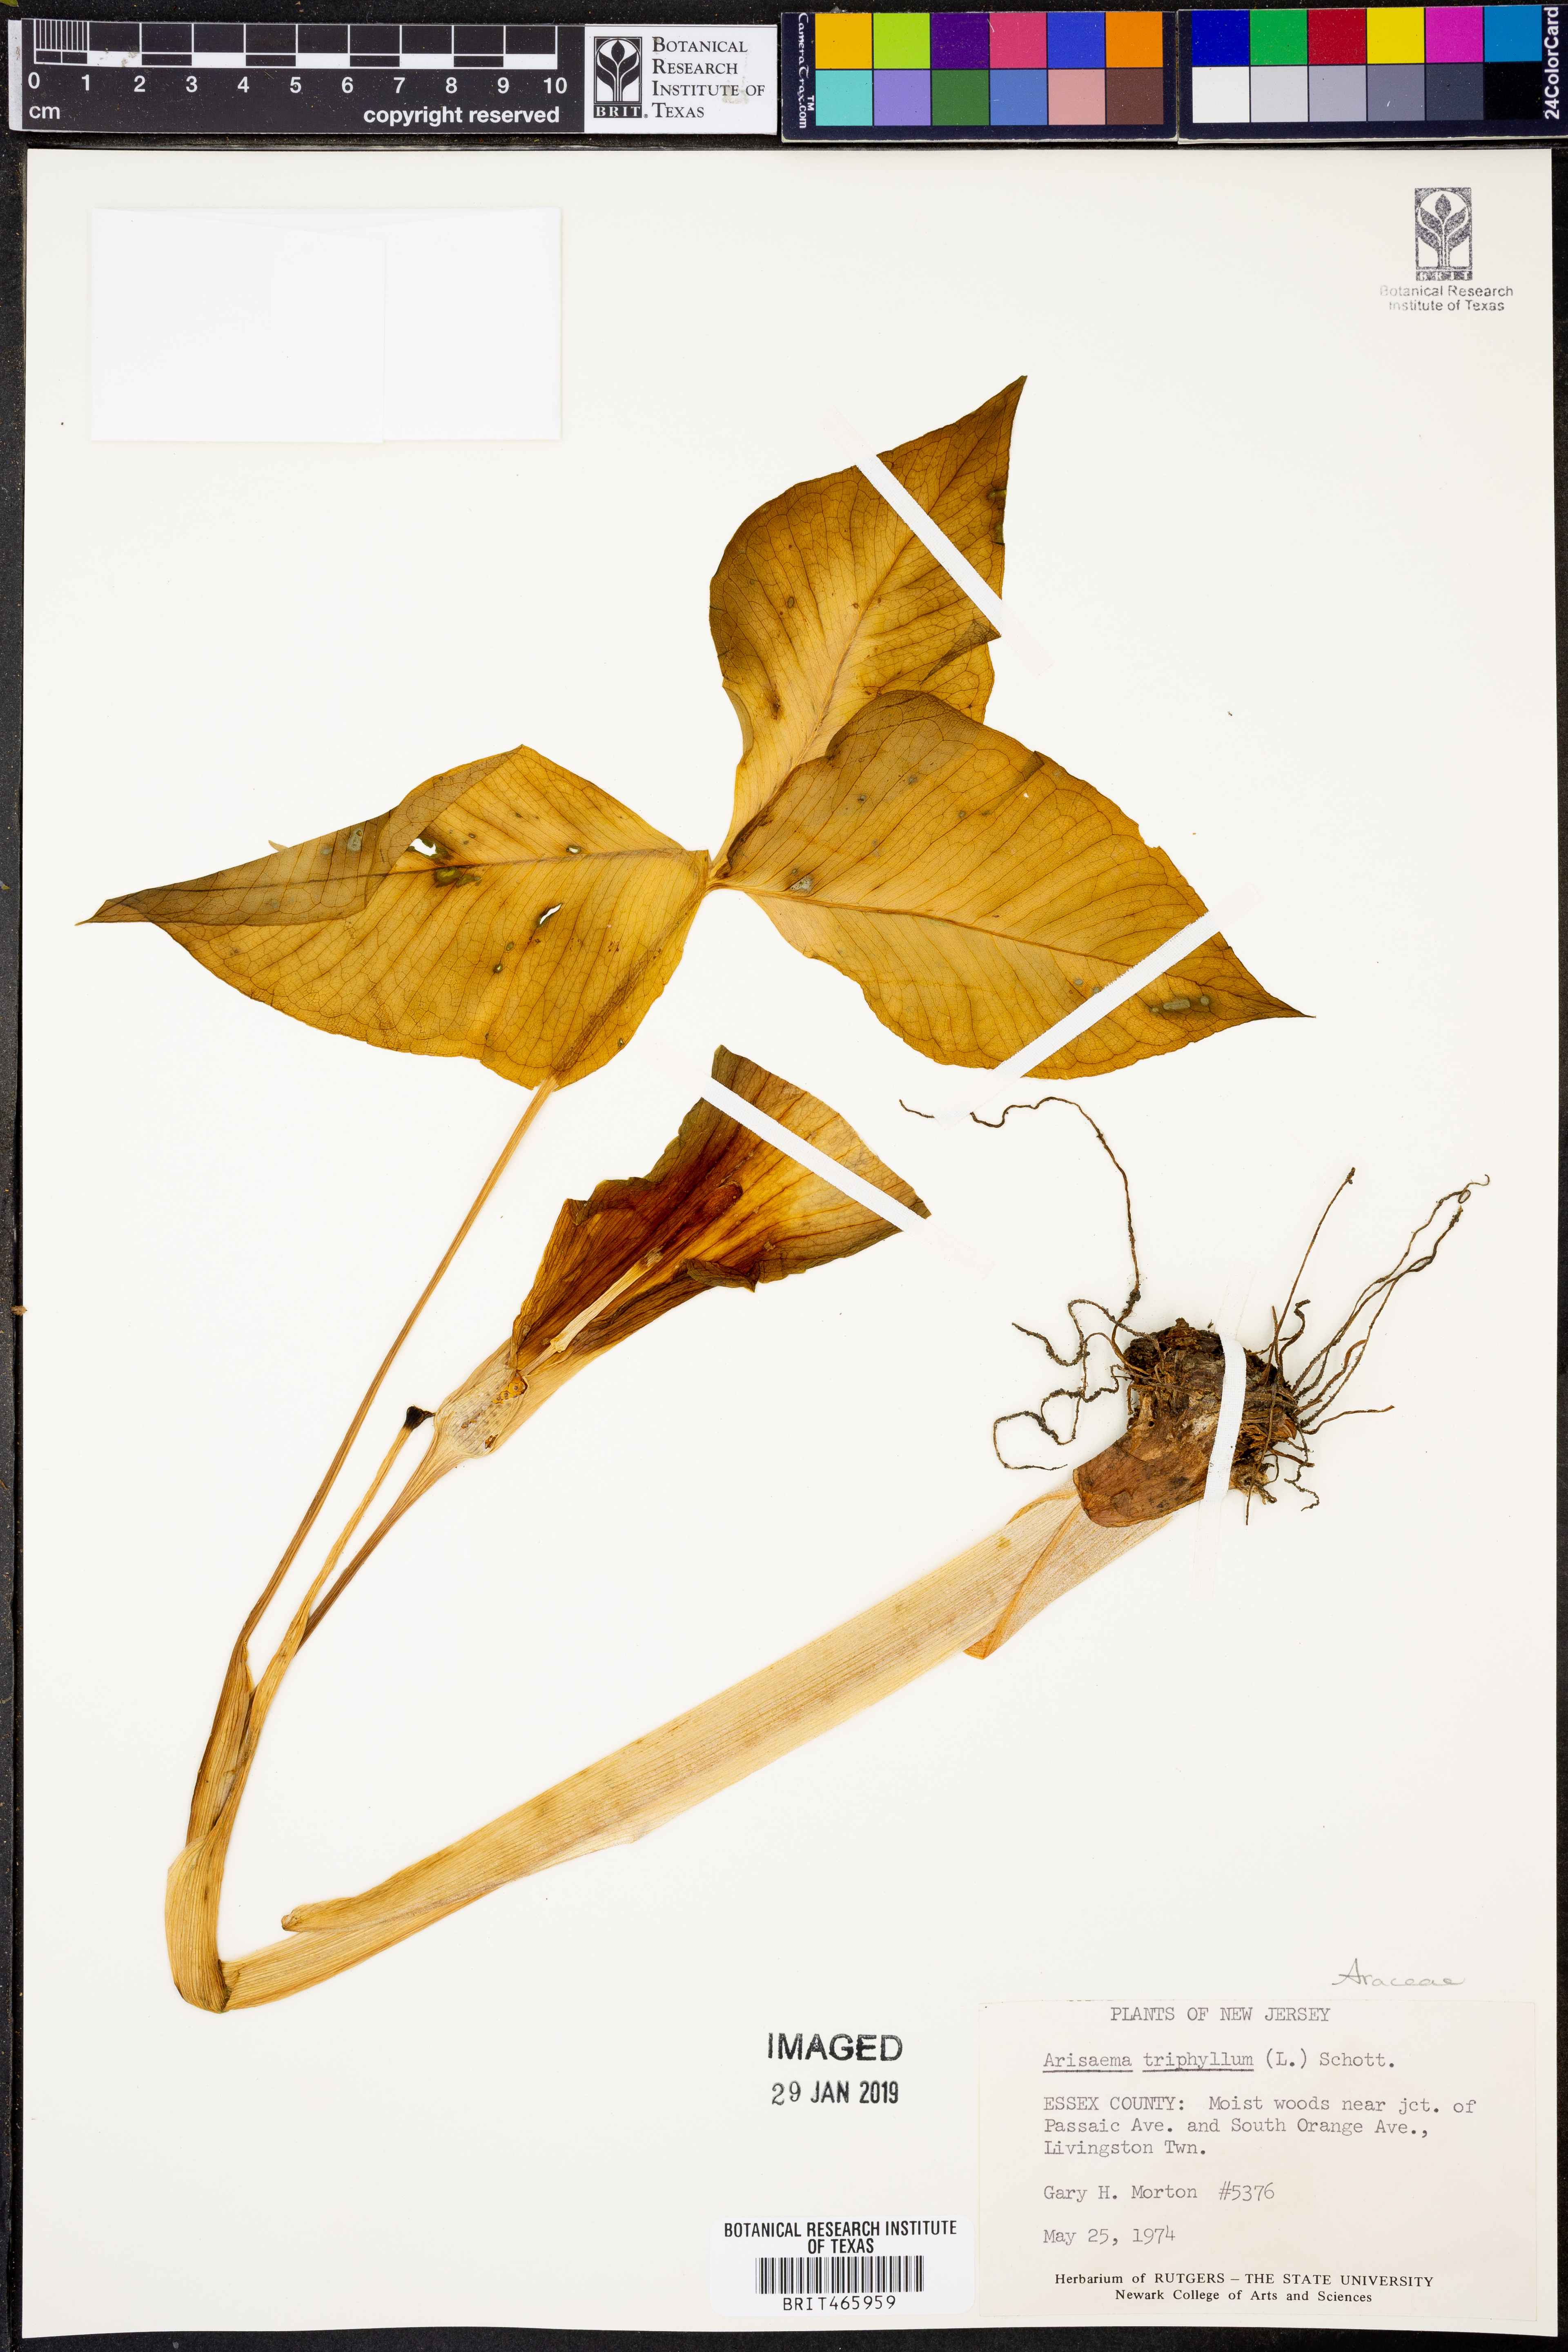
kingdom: Plantae
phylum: Tracheophyta
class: Liliopsida
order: Alismatales
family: Araceae
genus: Arisaema
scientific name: Arisaema triphyllum
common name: Jack-in-the-pulpit
